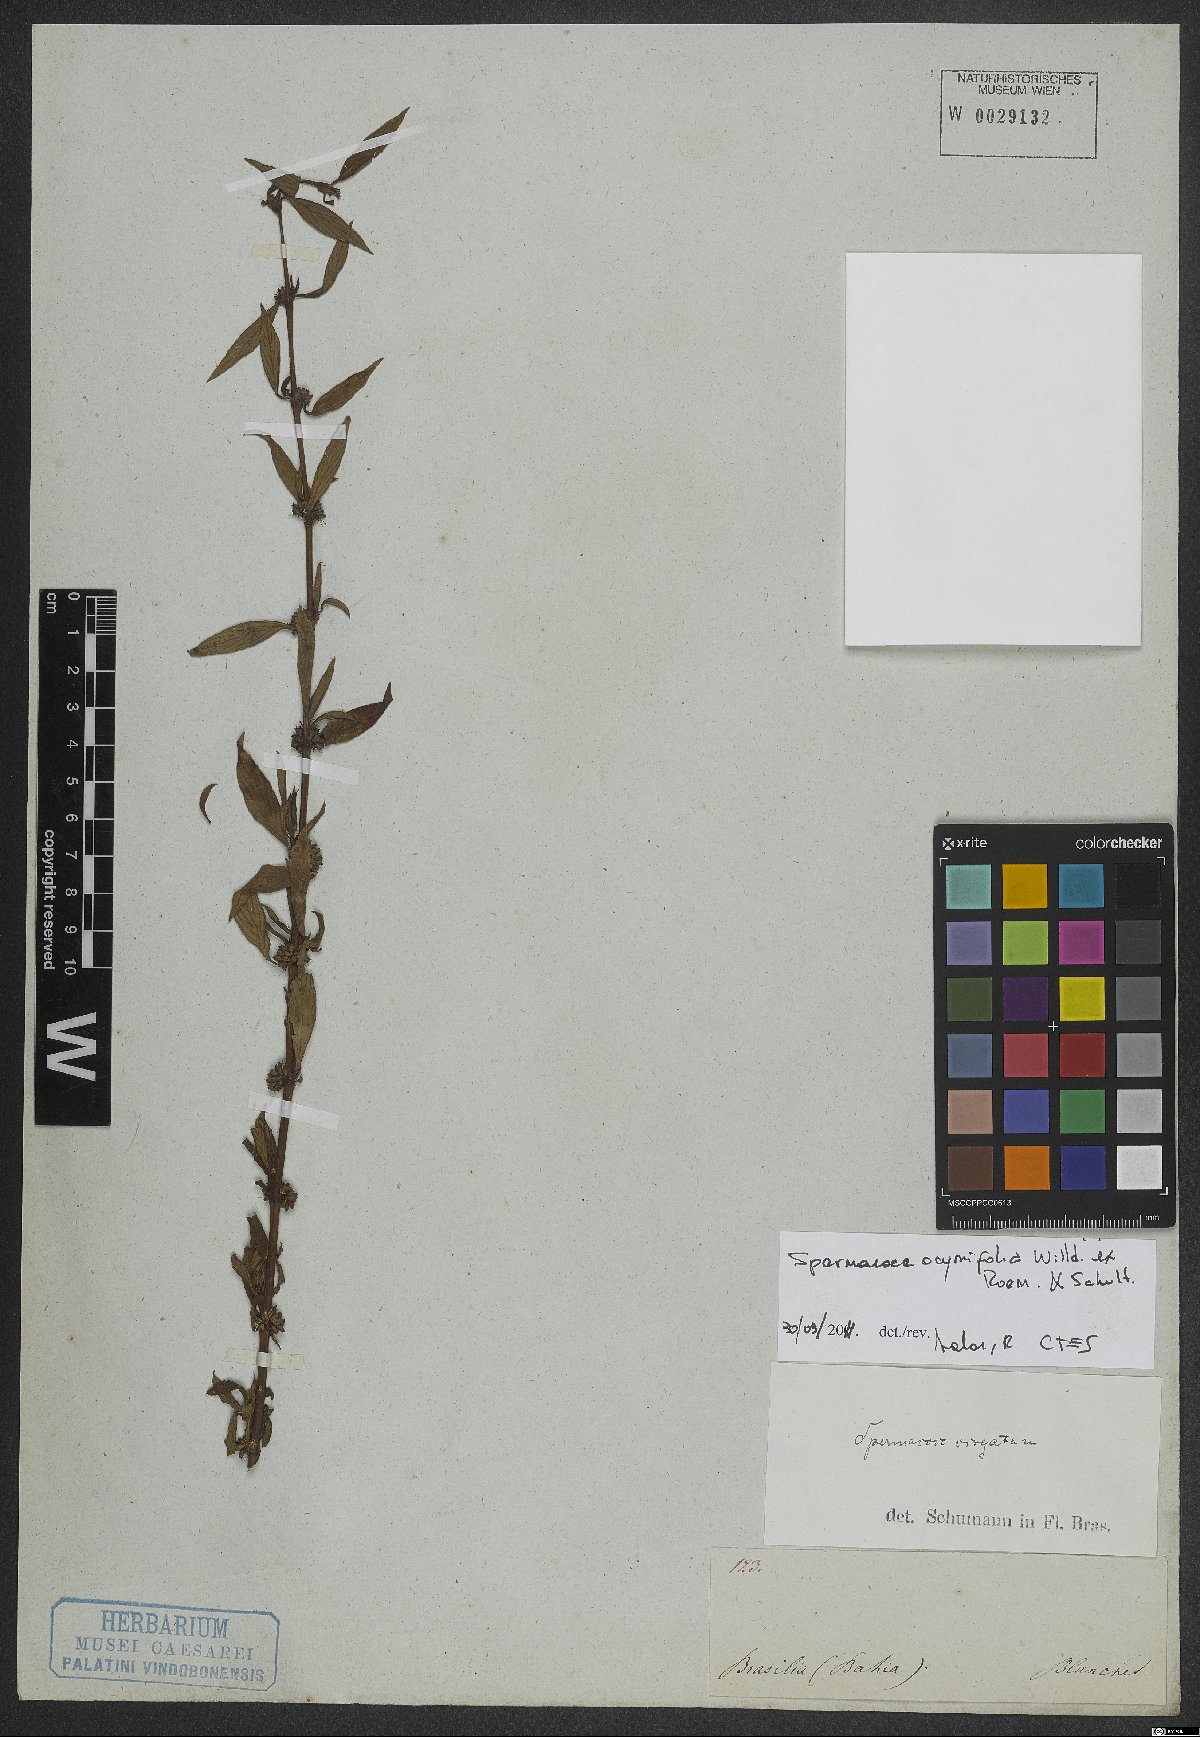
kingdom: Plantae
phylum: Tracheophyta
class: Magnoliopsida
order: Gentianales
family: Rubiaceae
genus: Spermacoce
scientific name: Spermacoce ocymifolia
